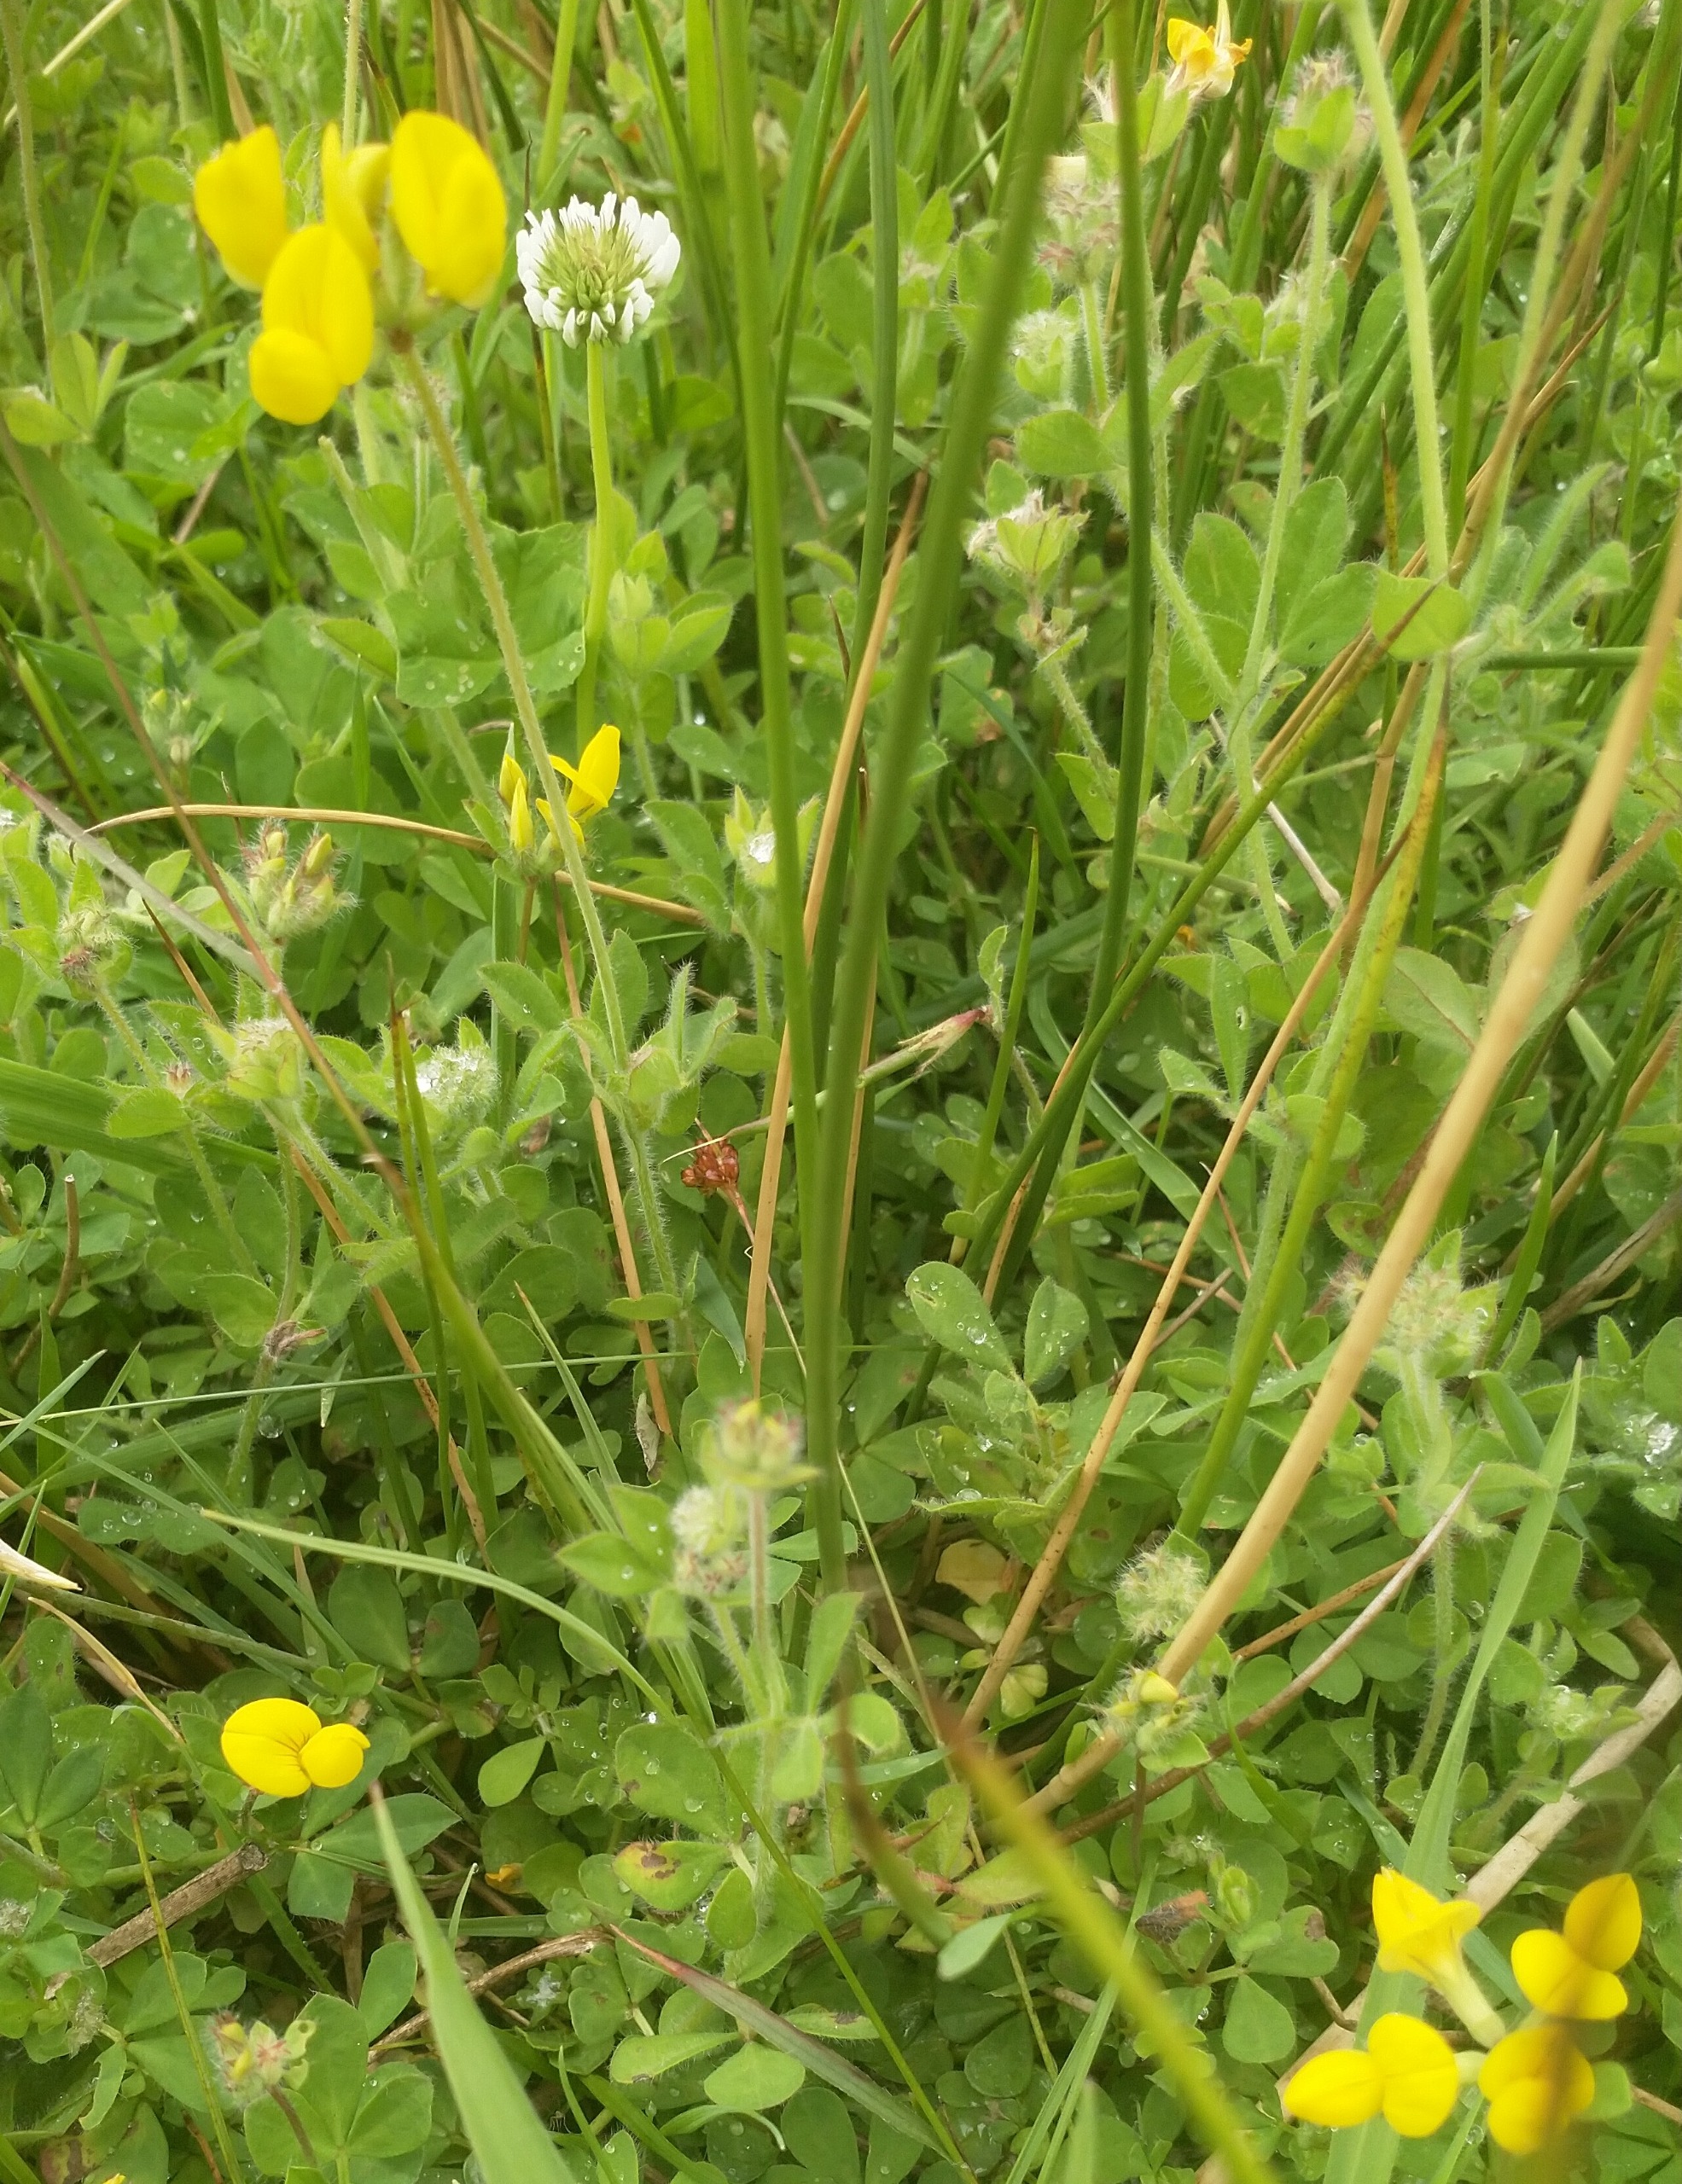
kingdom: Plantae
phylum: Tracheophyta
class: Magnoliopsida
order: Fabales
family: Fabaceae
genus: Lotus
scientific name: Lotus pedunculatus
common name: Klit-kællingetand
